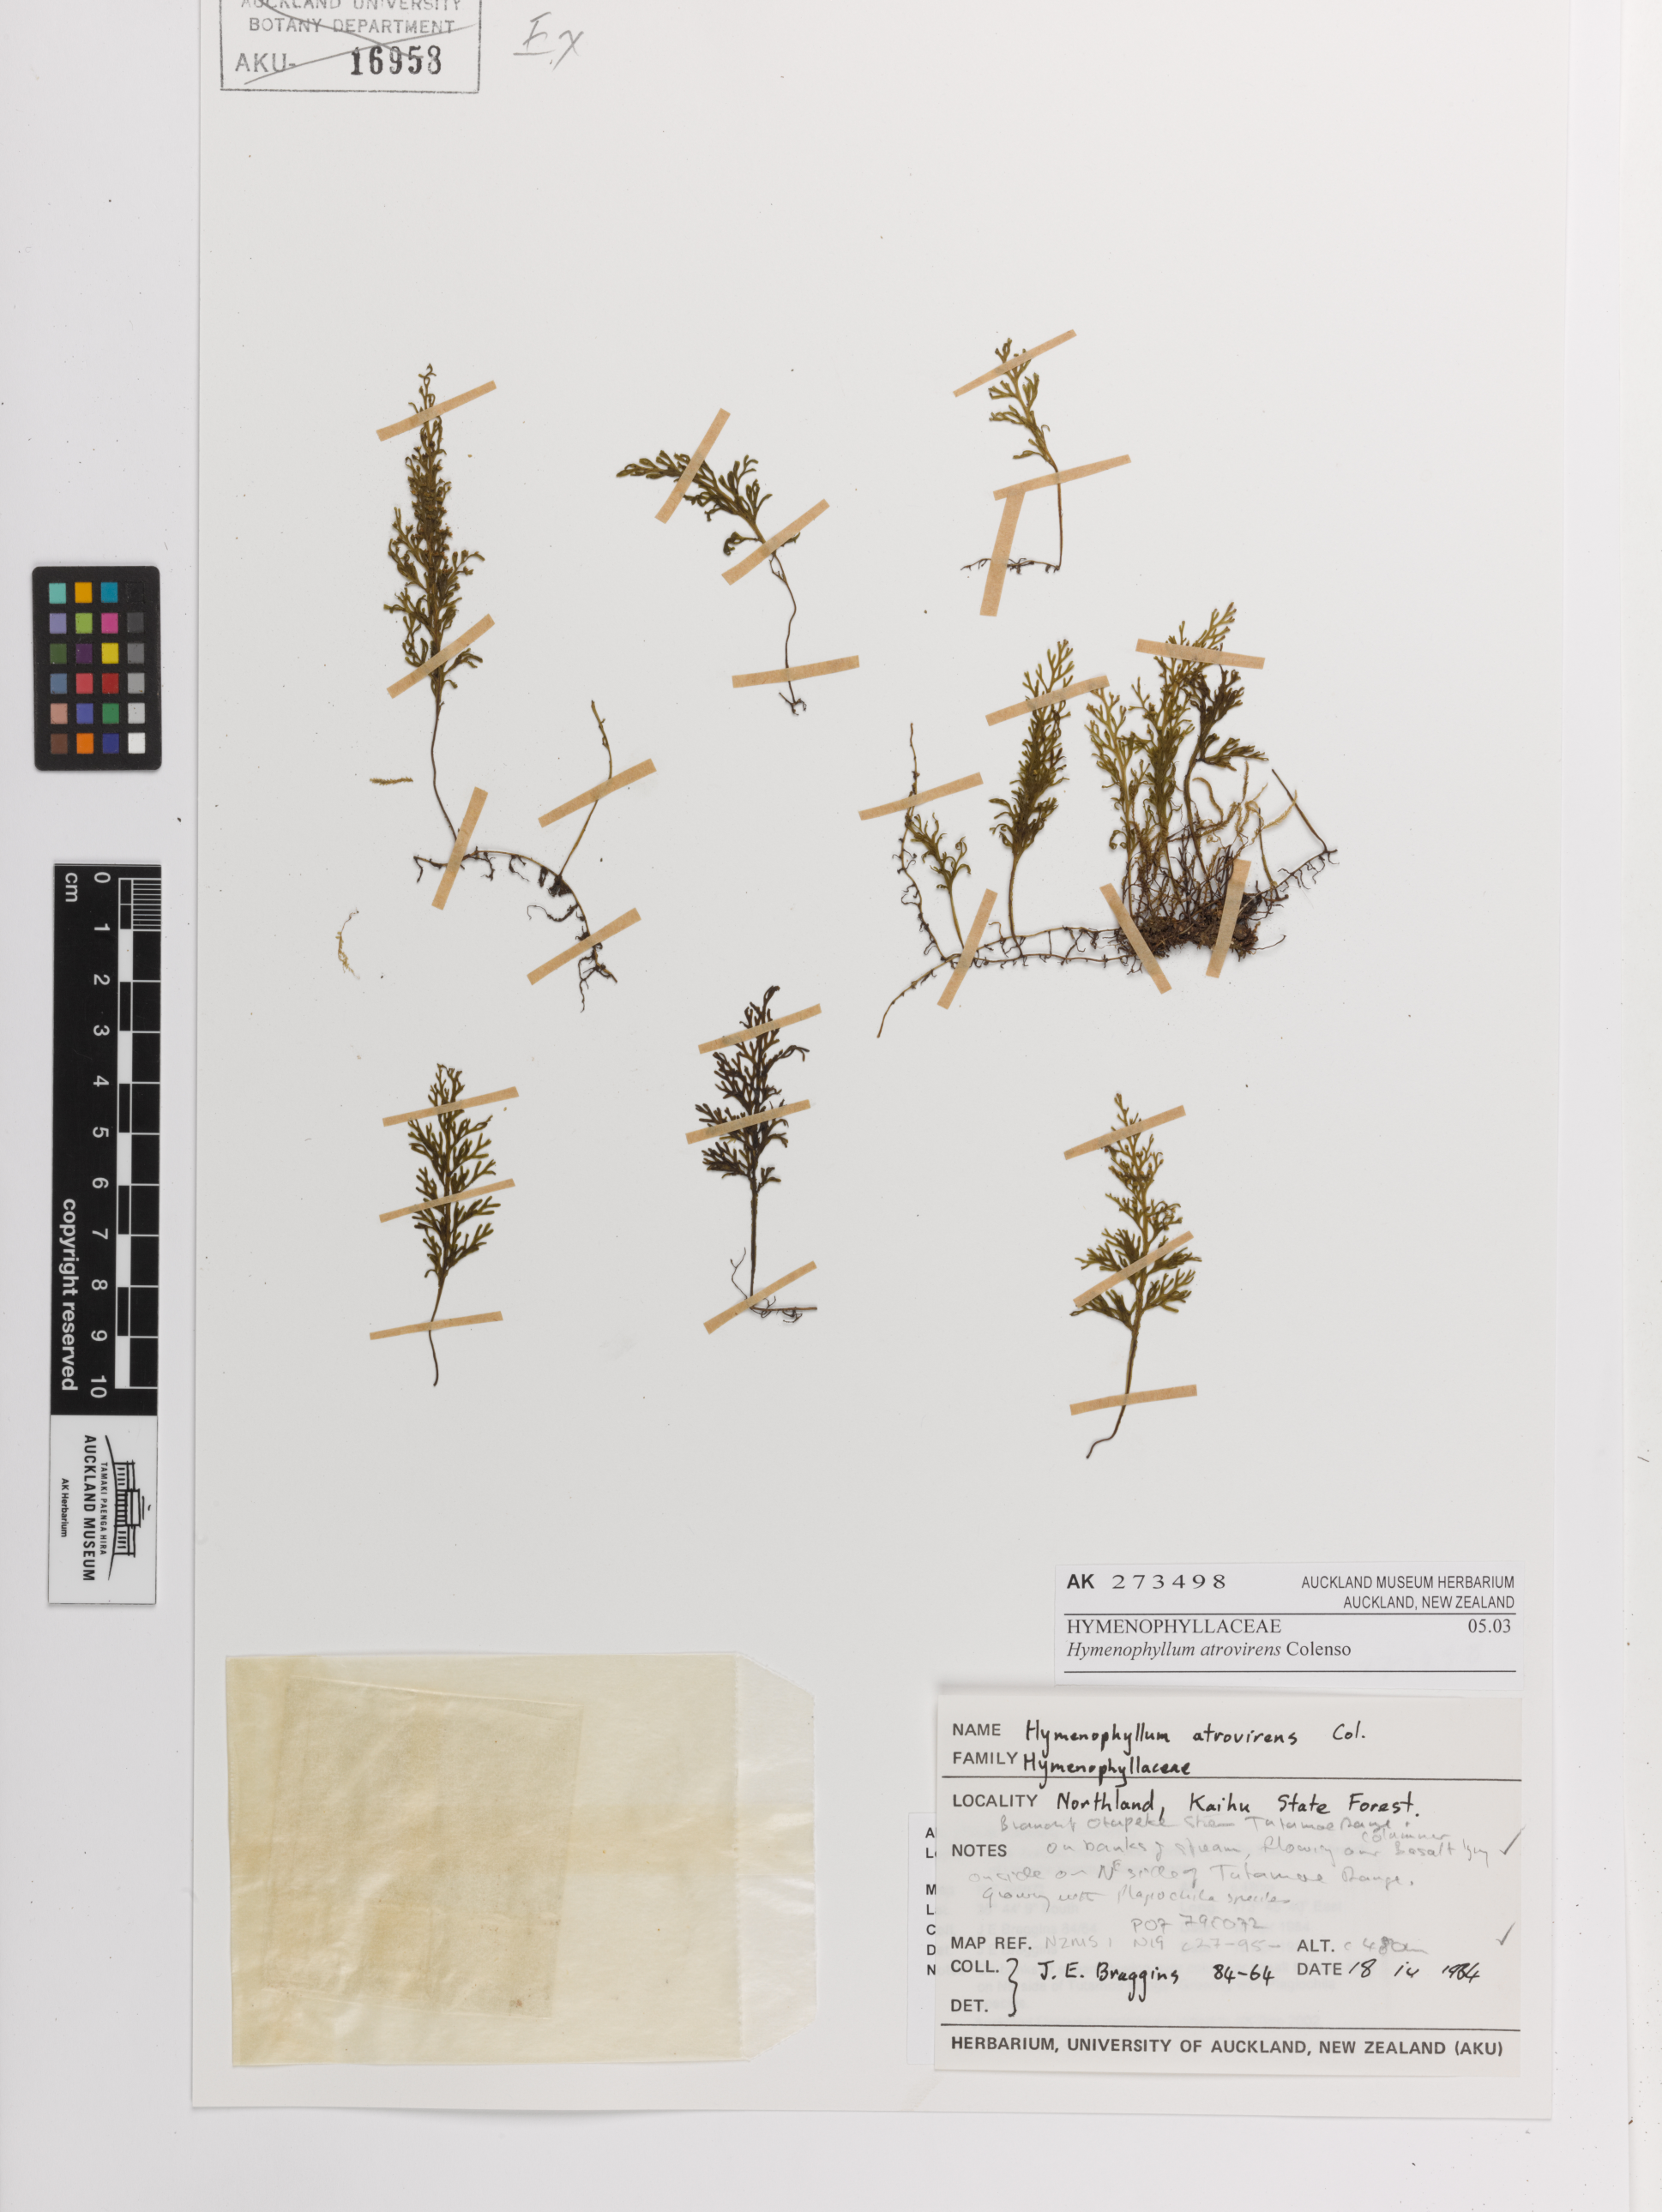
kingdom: Plantae
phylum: Tracheophyta
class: Polypodiopsida
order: Hymenophyllales
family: Hymenophyllaceae
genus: Hymenophyllum
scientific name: Hymenophyllum australe
